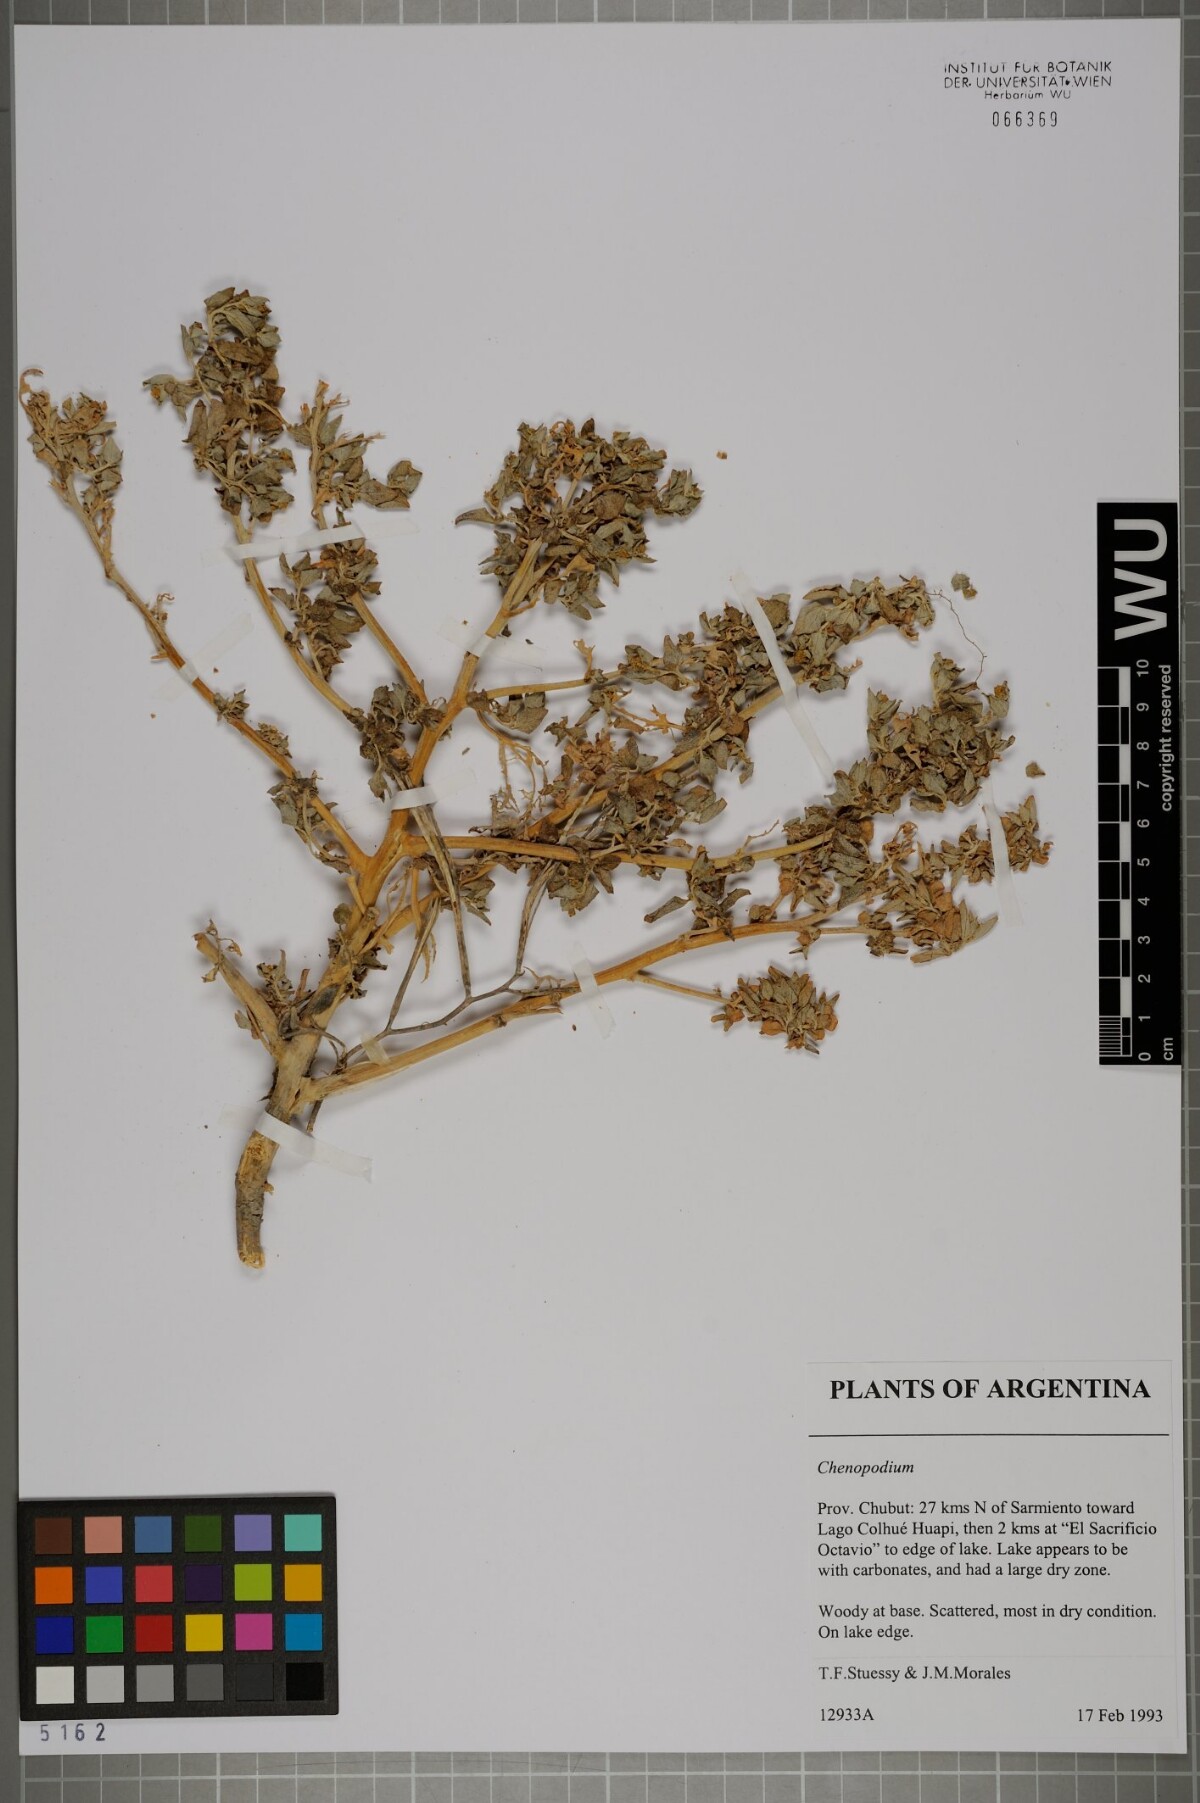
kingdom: Plantae
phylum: Tracheophyta
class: Magnoliopsida
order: Caryophyllales
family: Amaranthaceae
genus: Chenopodium
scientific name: Chenopodium
